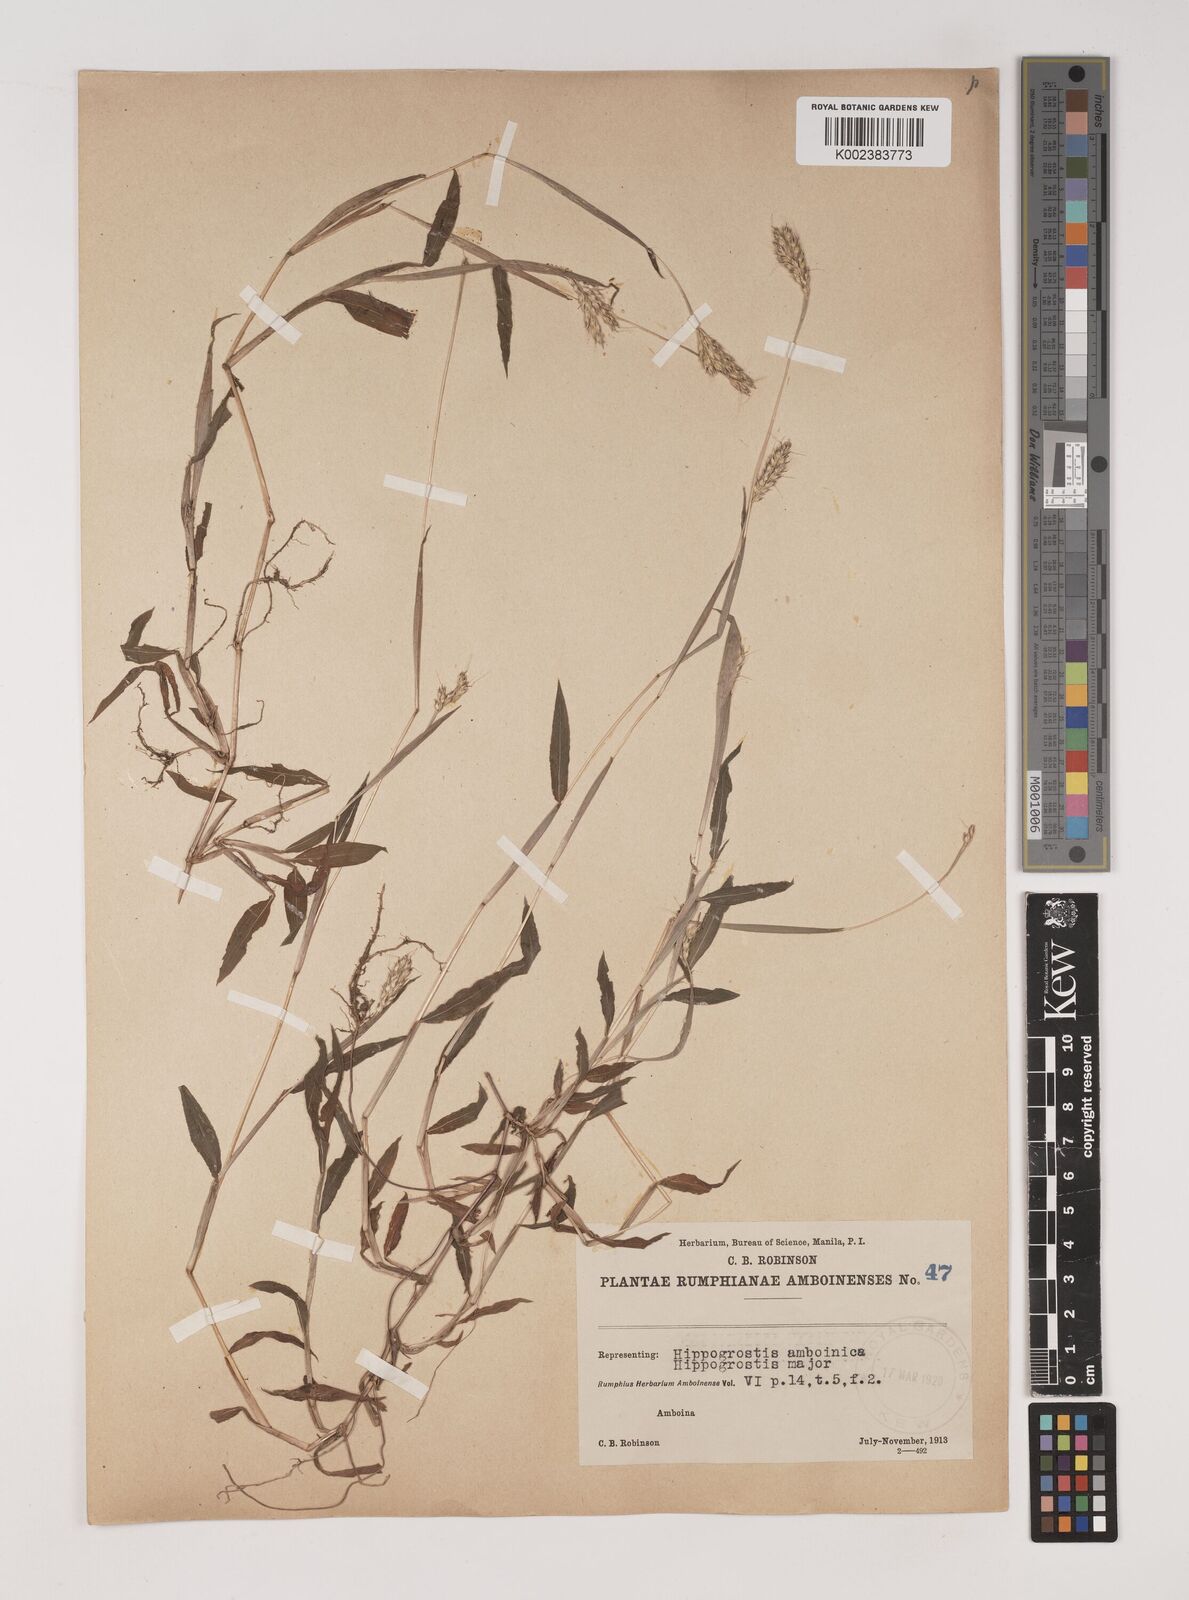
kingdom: Plantae
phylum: Tracheophyta
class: Liliopsida
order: Poales
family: Poaceae
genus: Polytrias
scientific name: Polytrias indica
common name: Indian murainagrass
